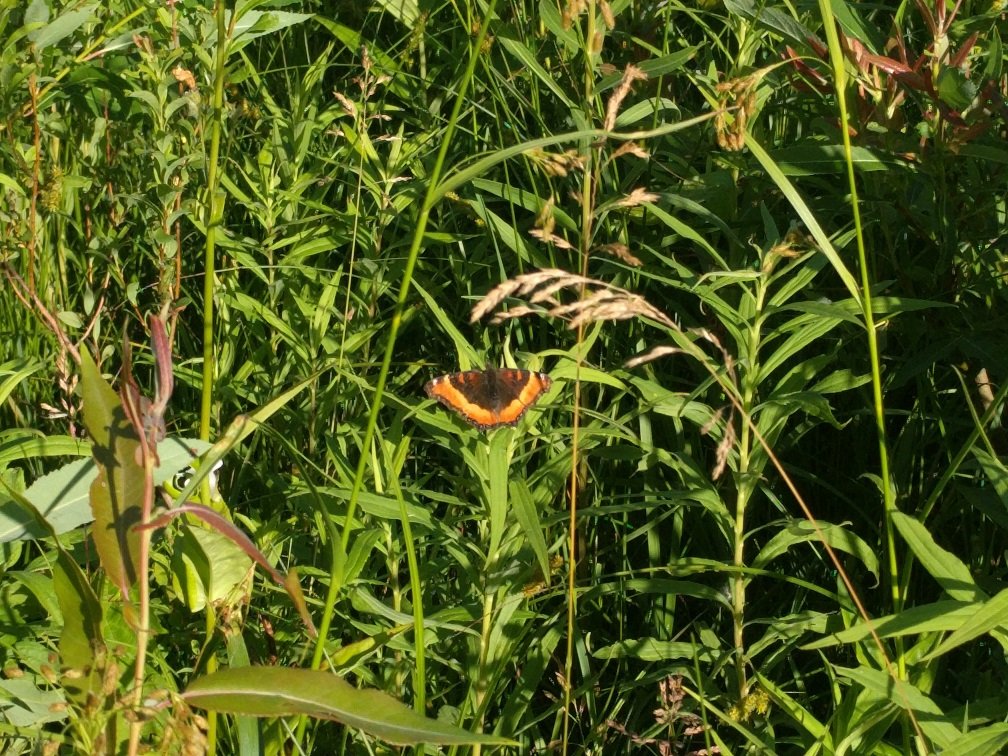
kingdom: Animalia
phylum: Arthropoda
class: Insecta
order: Lepidoptera
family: Nymphalidae
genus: Aglais
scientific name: Aglais milberti
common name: Milbert's Tortoiseshell
